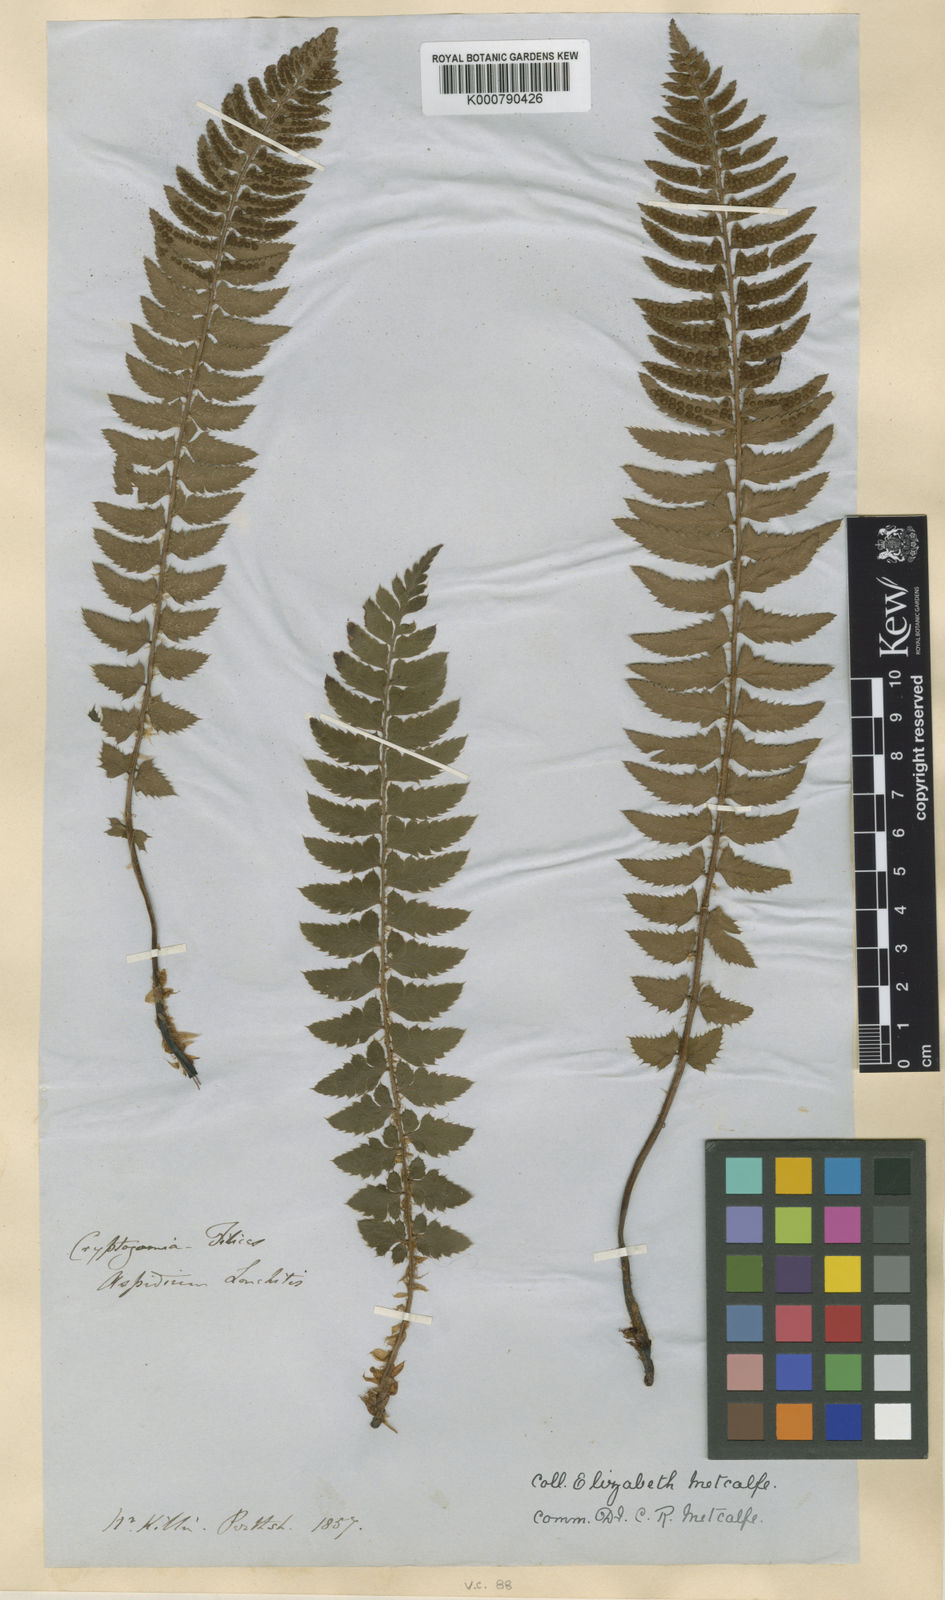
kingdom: Plantae
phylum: Tracheophyta
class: Polypodiopsida
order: Polypodiales
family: Dryopteridaceae
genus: Polystichum
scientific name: Polystichum
